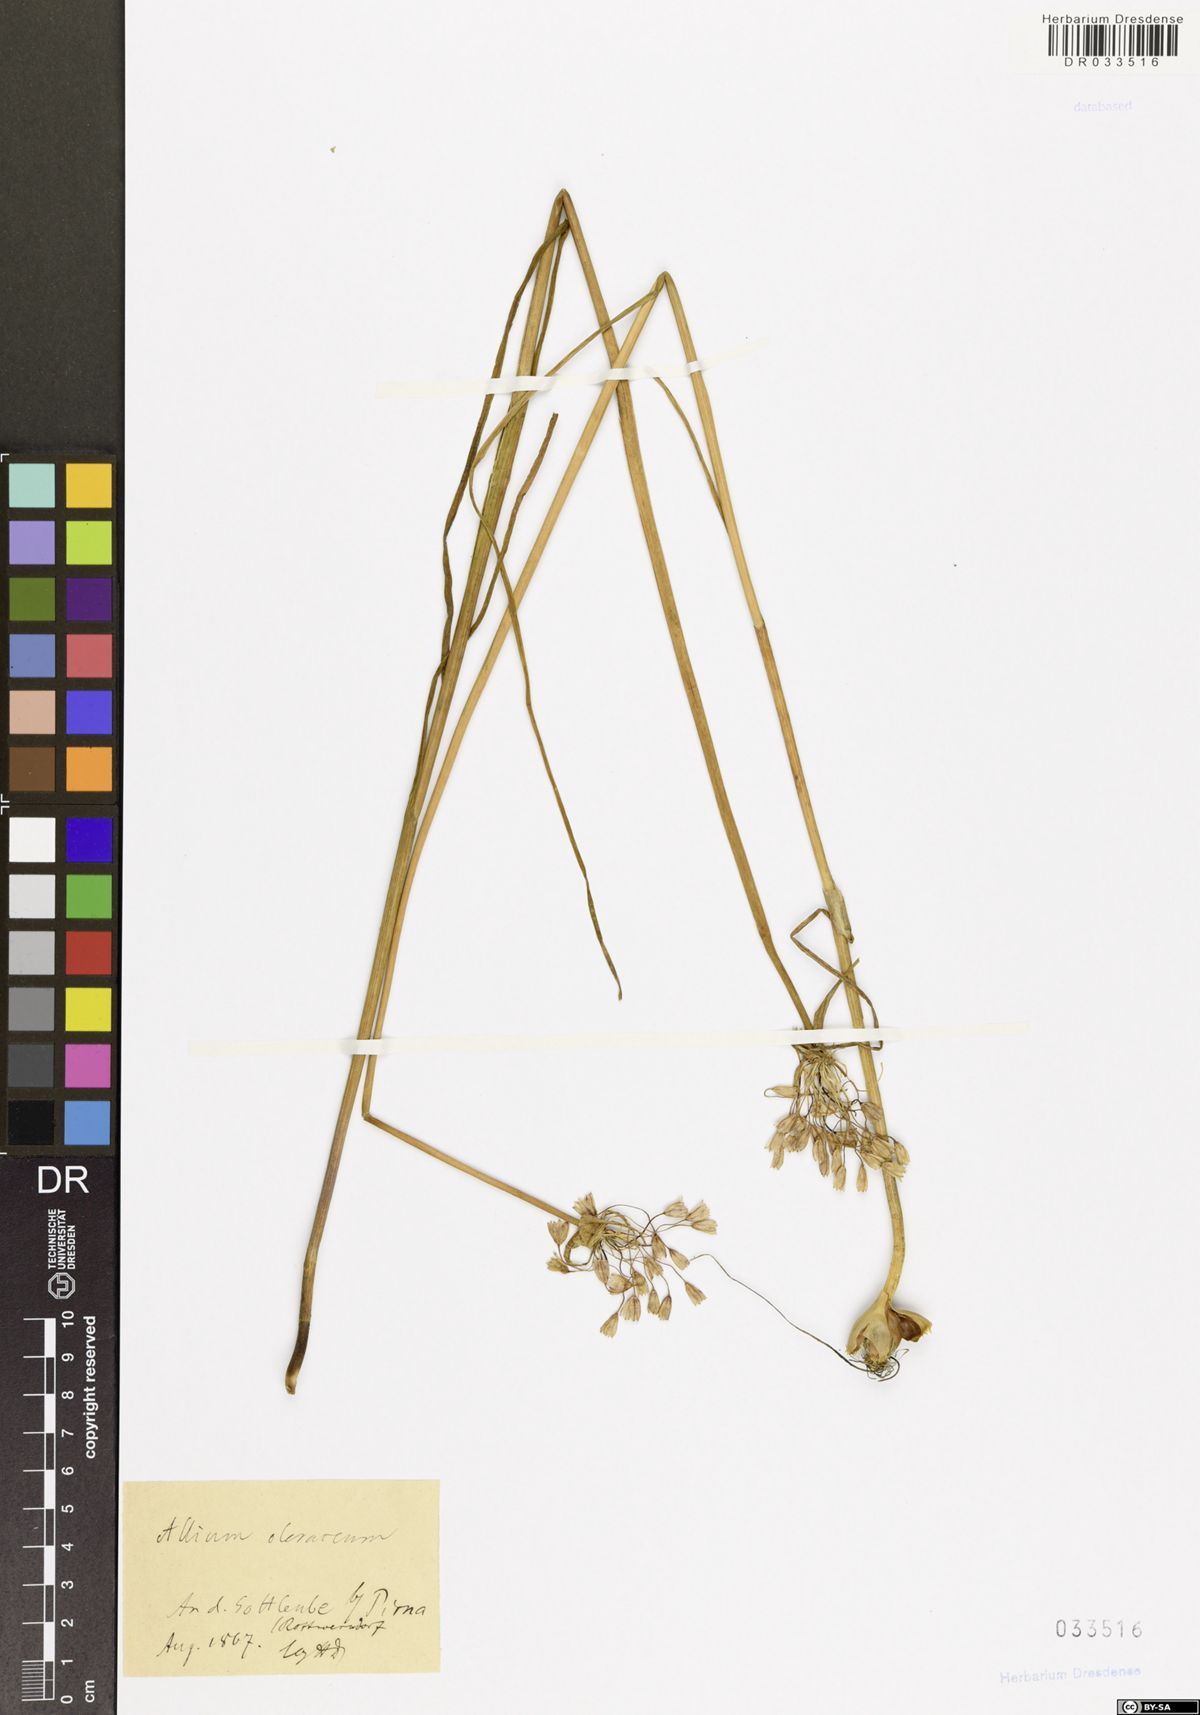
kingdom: Plantae
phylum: Tracheophyta
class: Liliopsida
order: Asparagales
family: Amaryllidaceae
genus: Allium
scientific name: Allium oleraceum
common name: Field garlic
